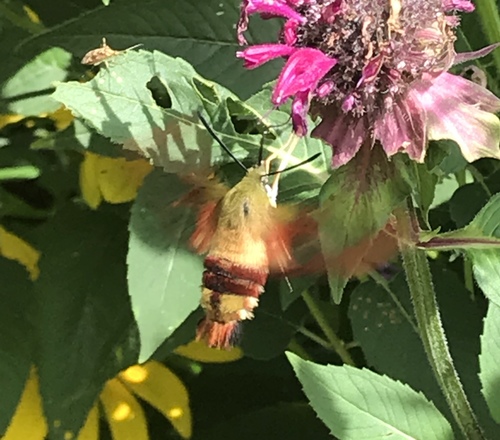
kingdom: Animalia
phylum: Arthropoda
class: Insecta
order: Lepidoptera
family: Sphingidae
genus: Hemaris
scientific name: Hemaris thysbe
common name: Common clear-wing
